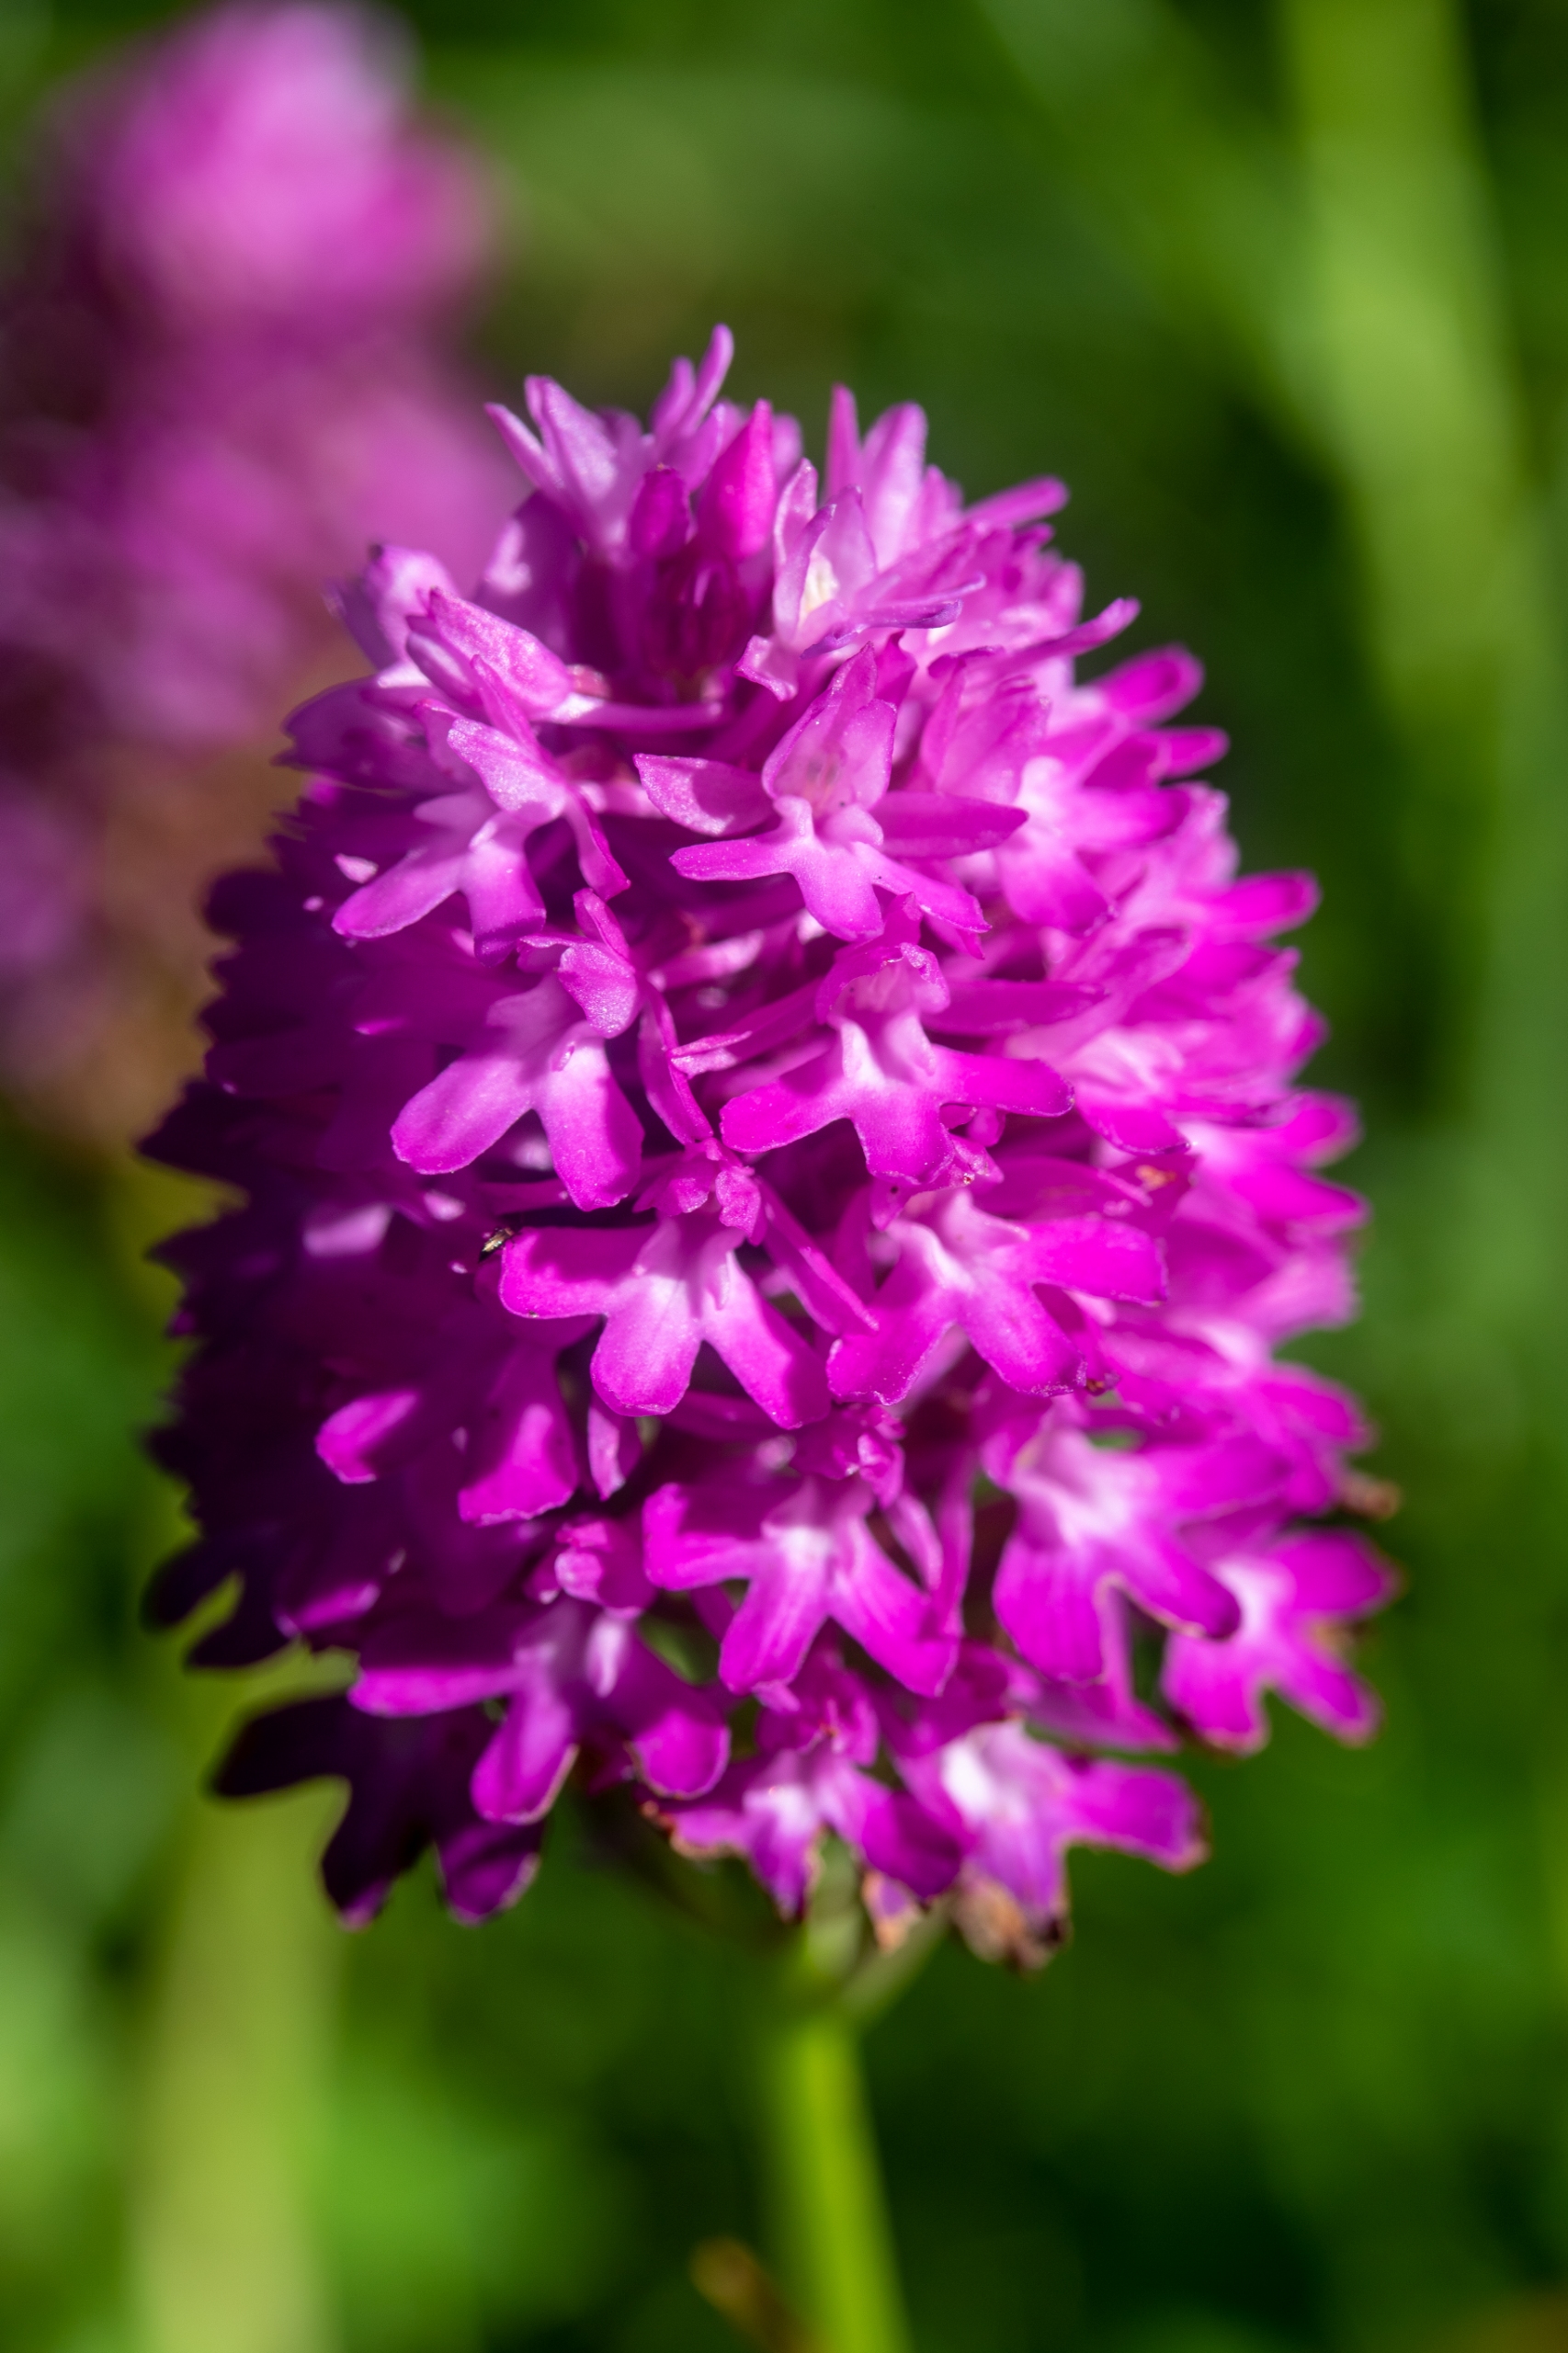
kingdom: Plantae
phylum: Tracheophyta
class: Liliopsida
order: Asparagales
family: Orchidaceae
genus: Anacamptis
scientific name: Anacamptis pyramidalis
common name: Horndrager
